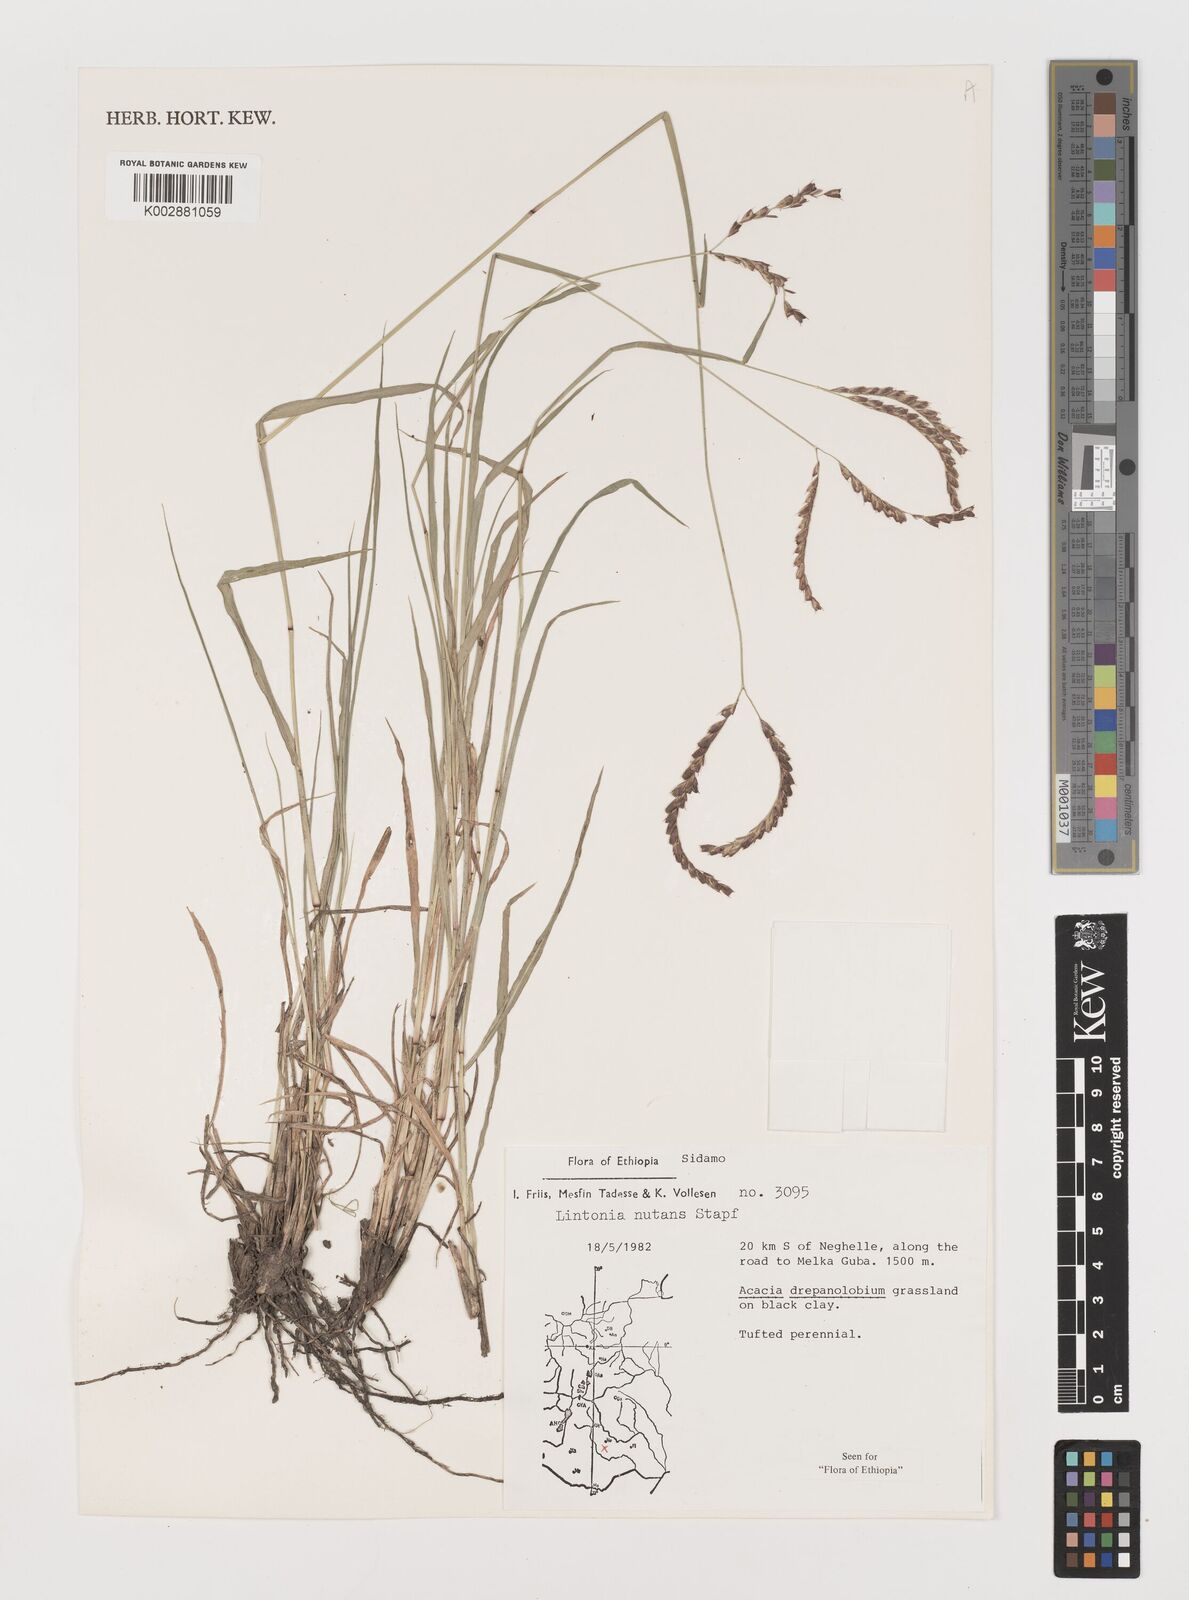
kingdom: Plantae
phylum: Tracheophyta
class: Liliopsida
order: Poales
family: Poaceae
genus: Chloris
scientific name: Chloris nutans
